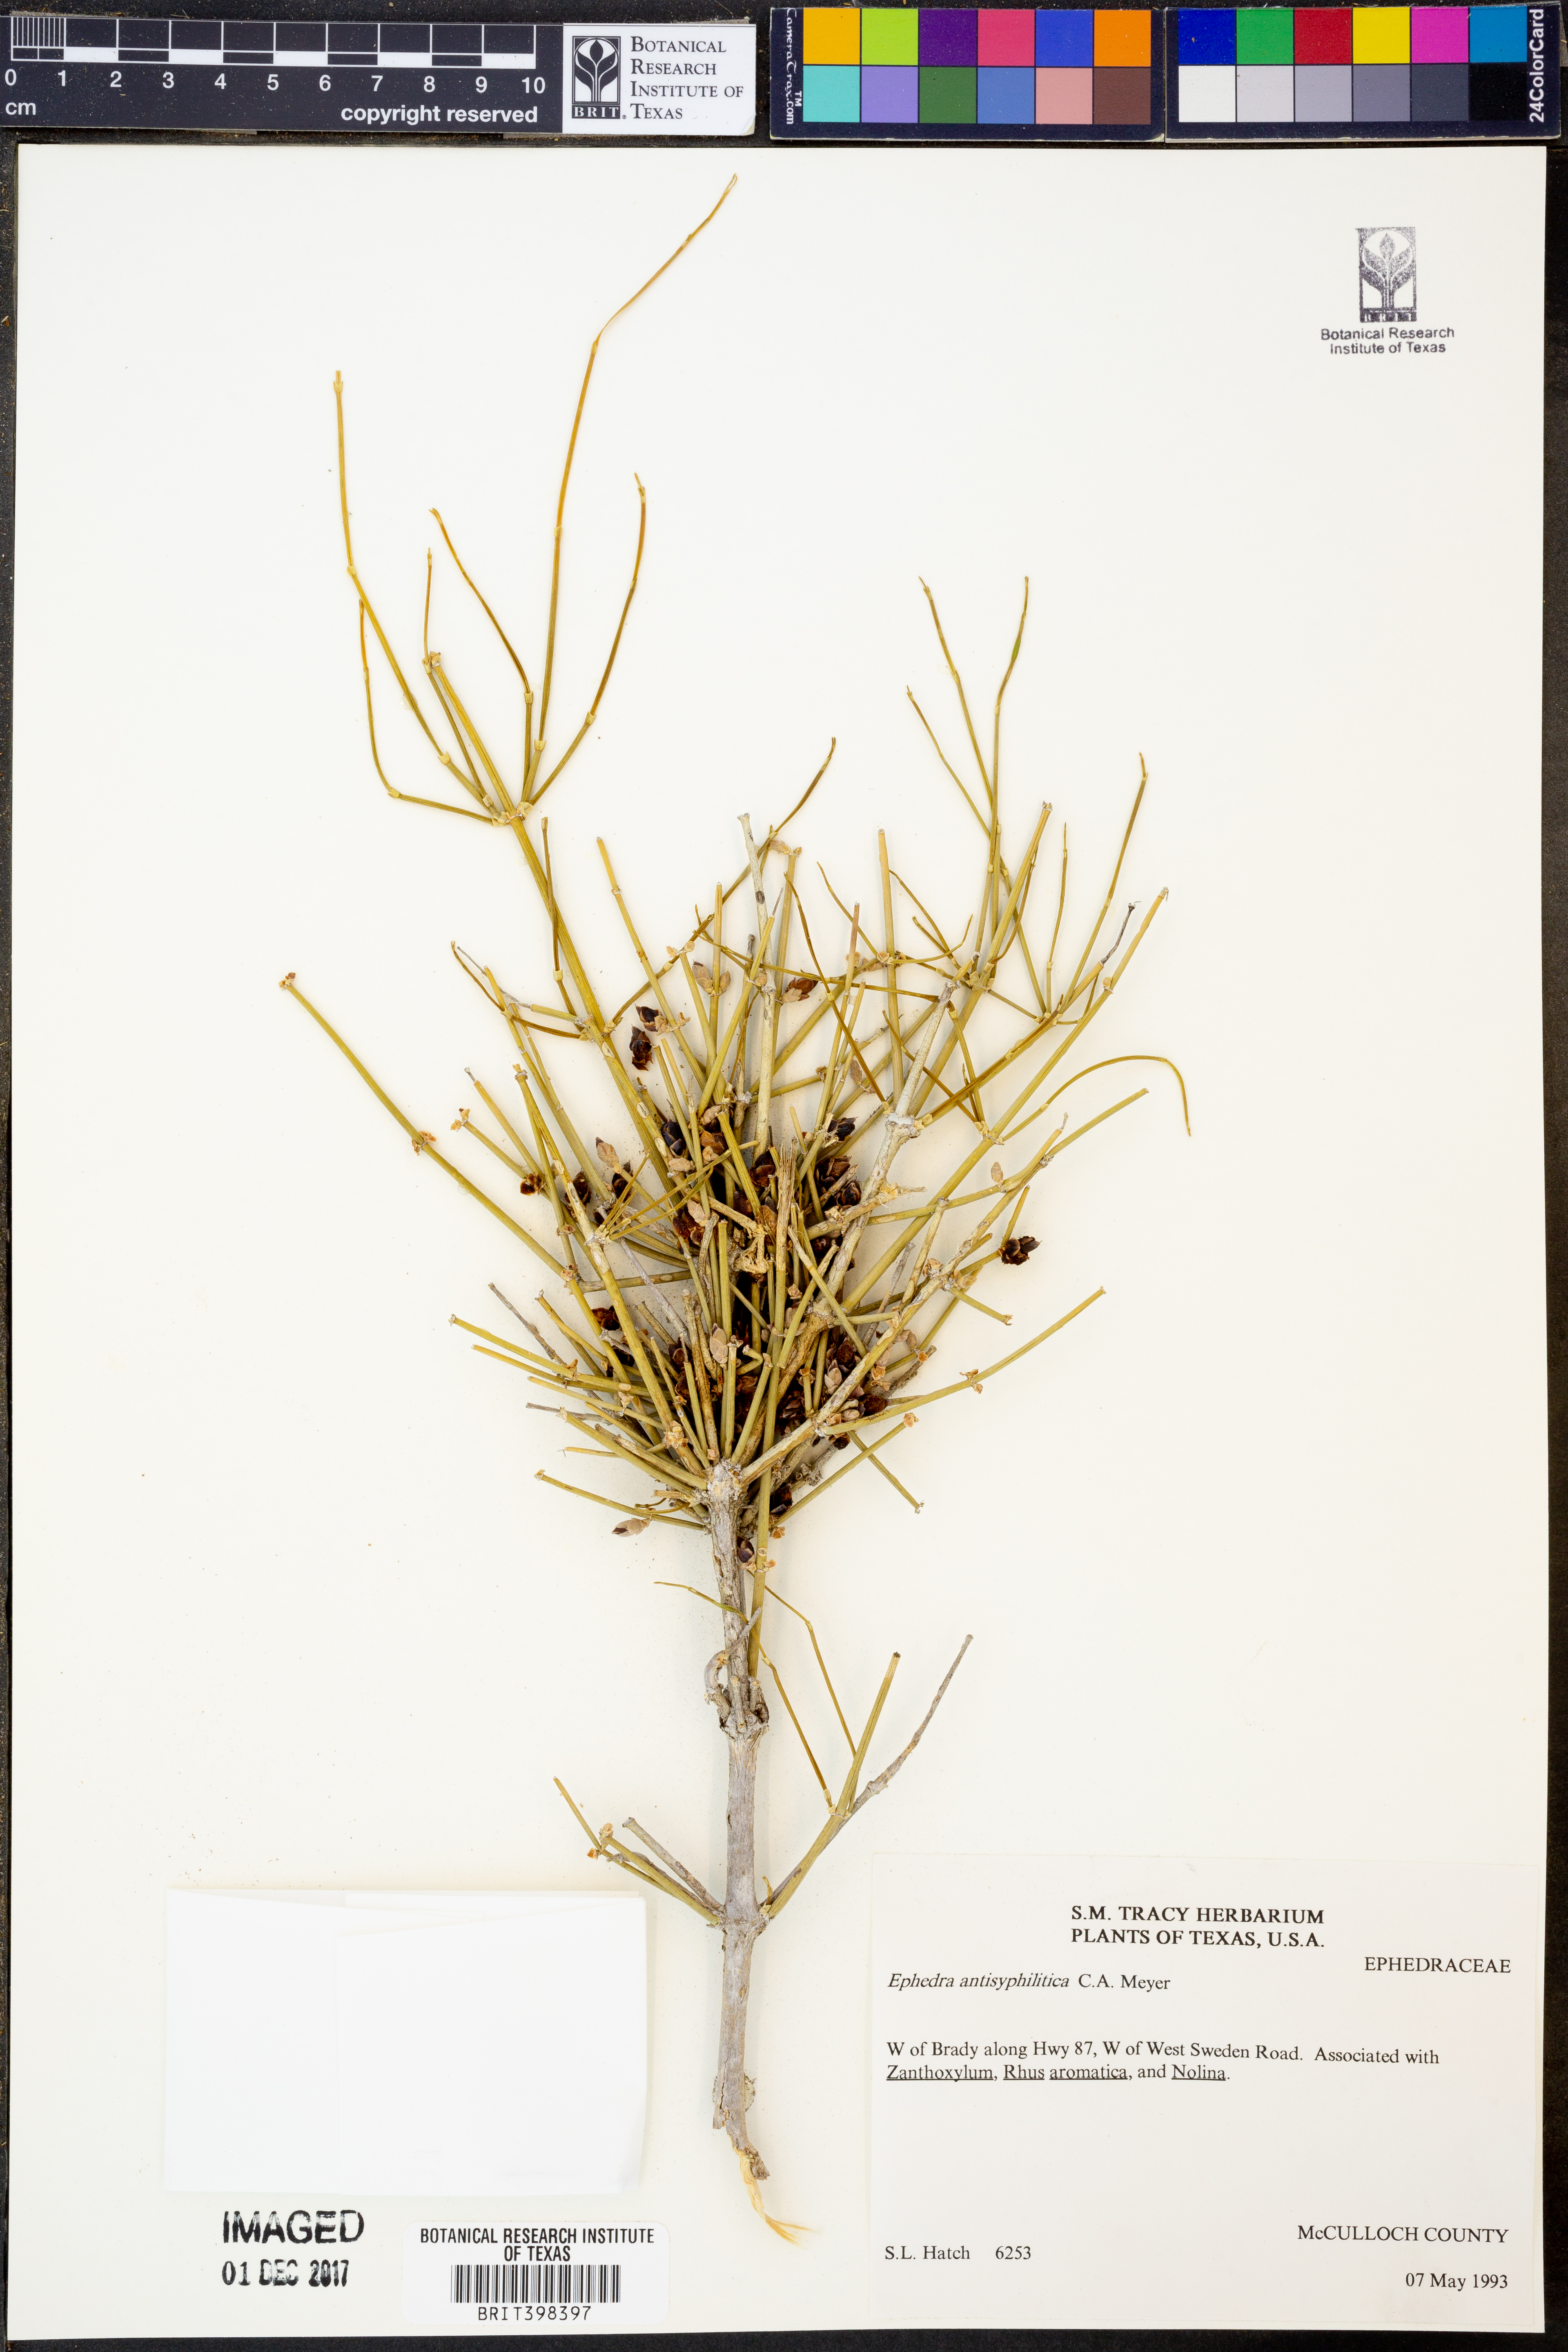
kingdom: Plantae
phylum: Tracheophyta
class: Gnetopsida
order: Ephedrales
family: Ephedraceae
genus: Ephedra
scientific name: Ephedra antisyphilitica
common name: Clipweed
